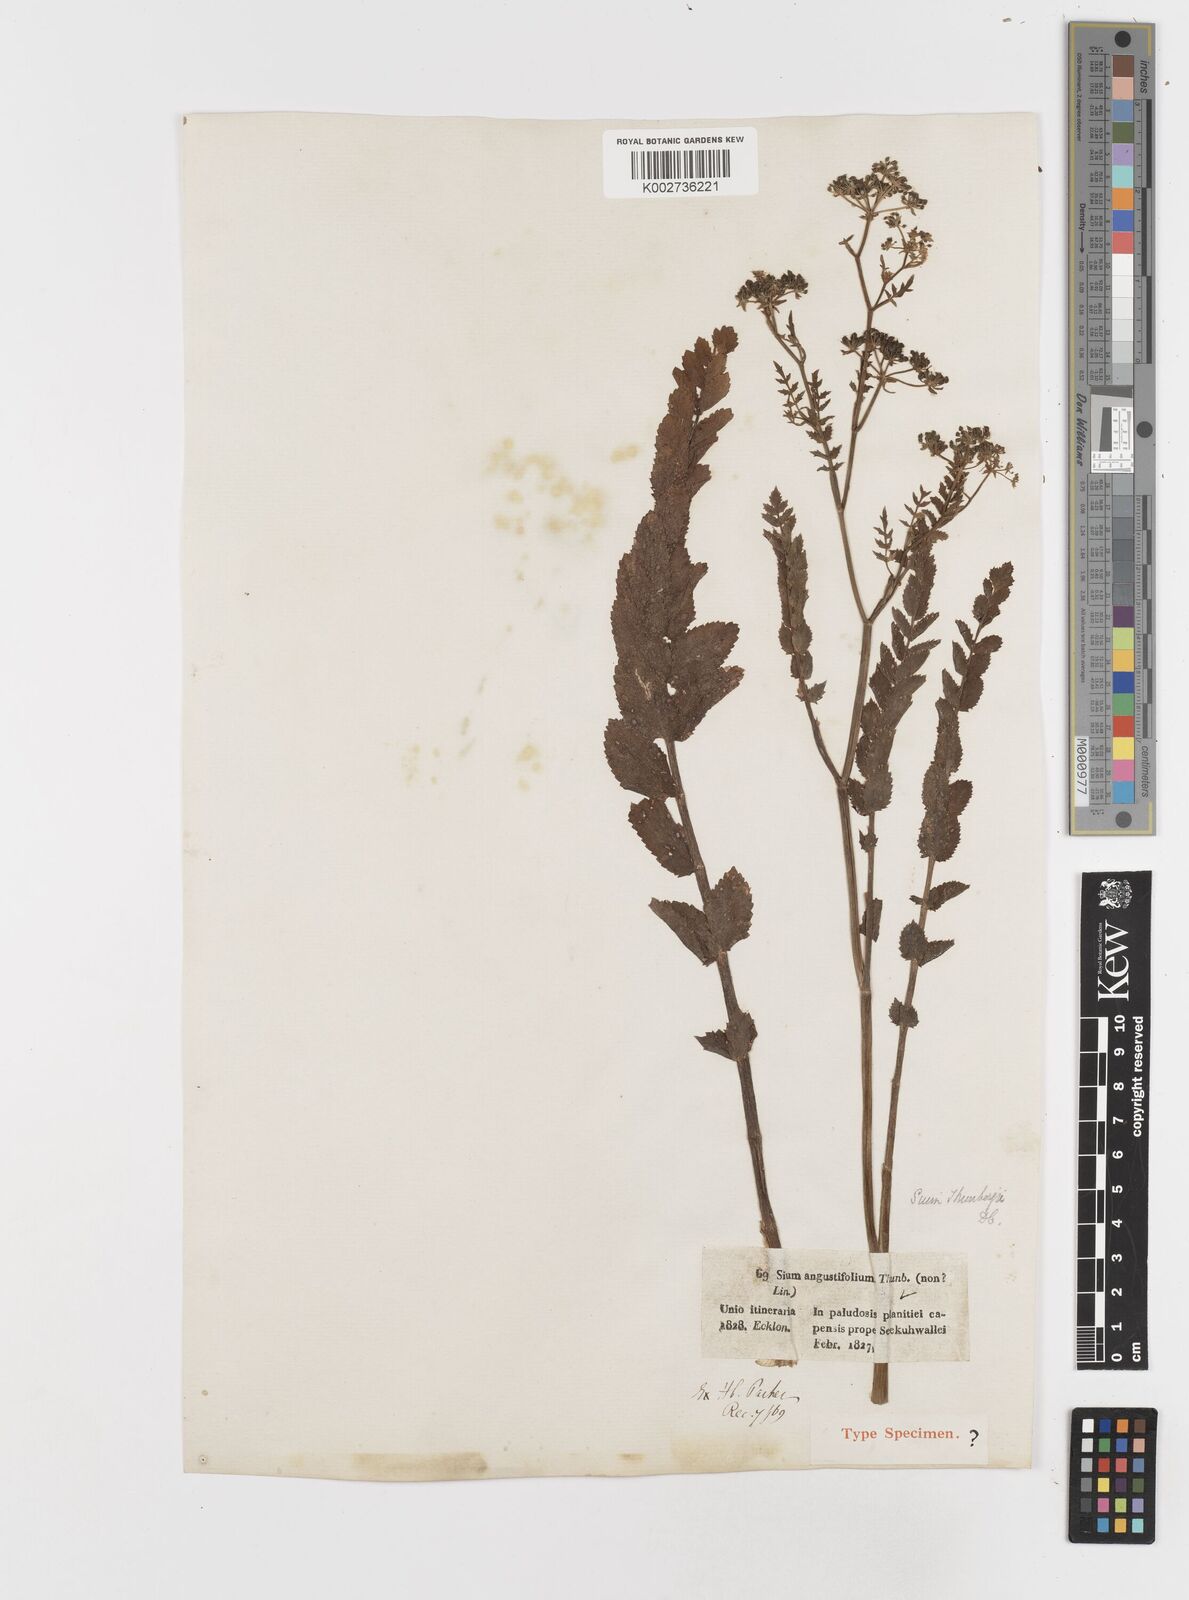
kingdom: Plantae
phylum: Tracheophyta
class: Magnoliopsida
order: Apiales
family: Apiaceae
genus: Berula
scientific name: Berula erecta
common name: Lesser water-parsnip
